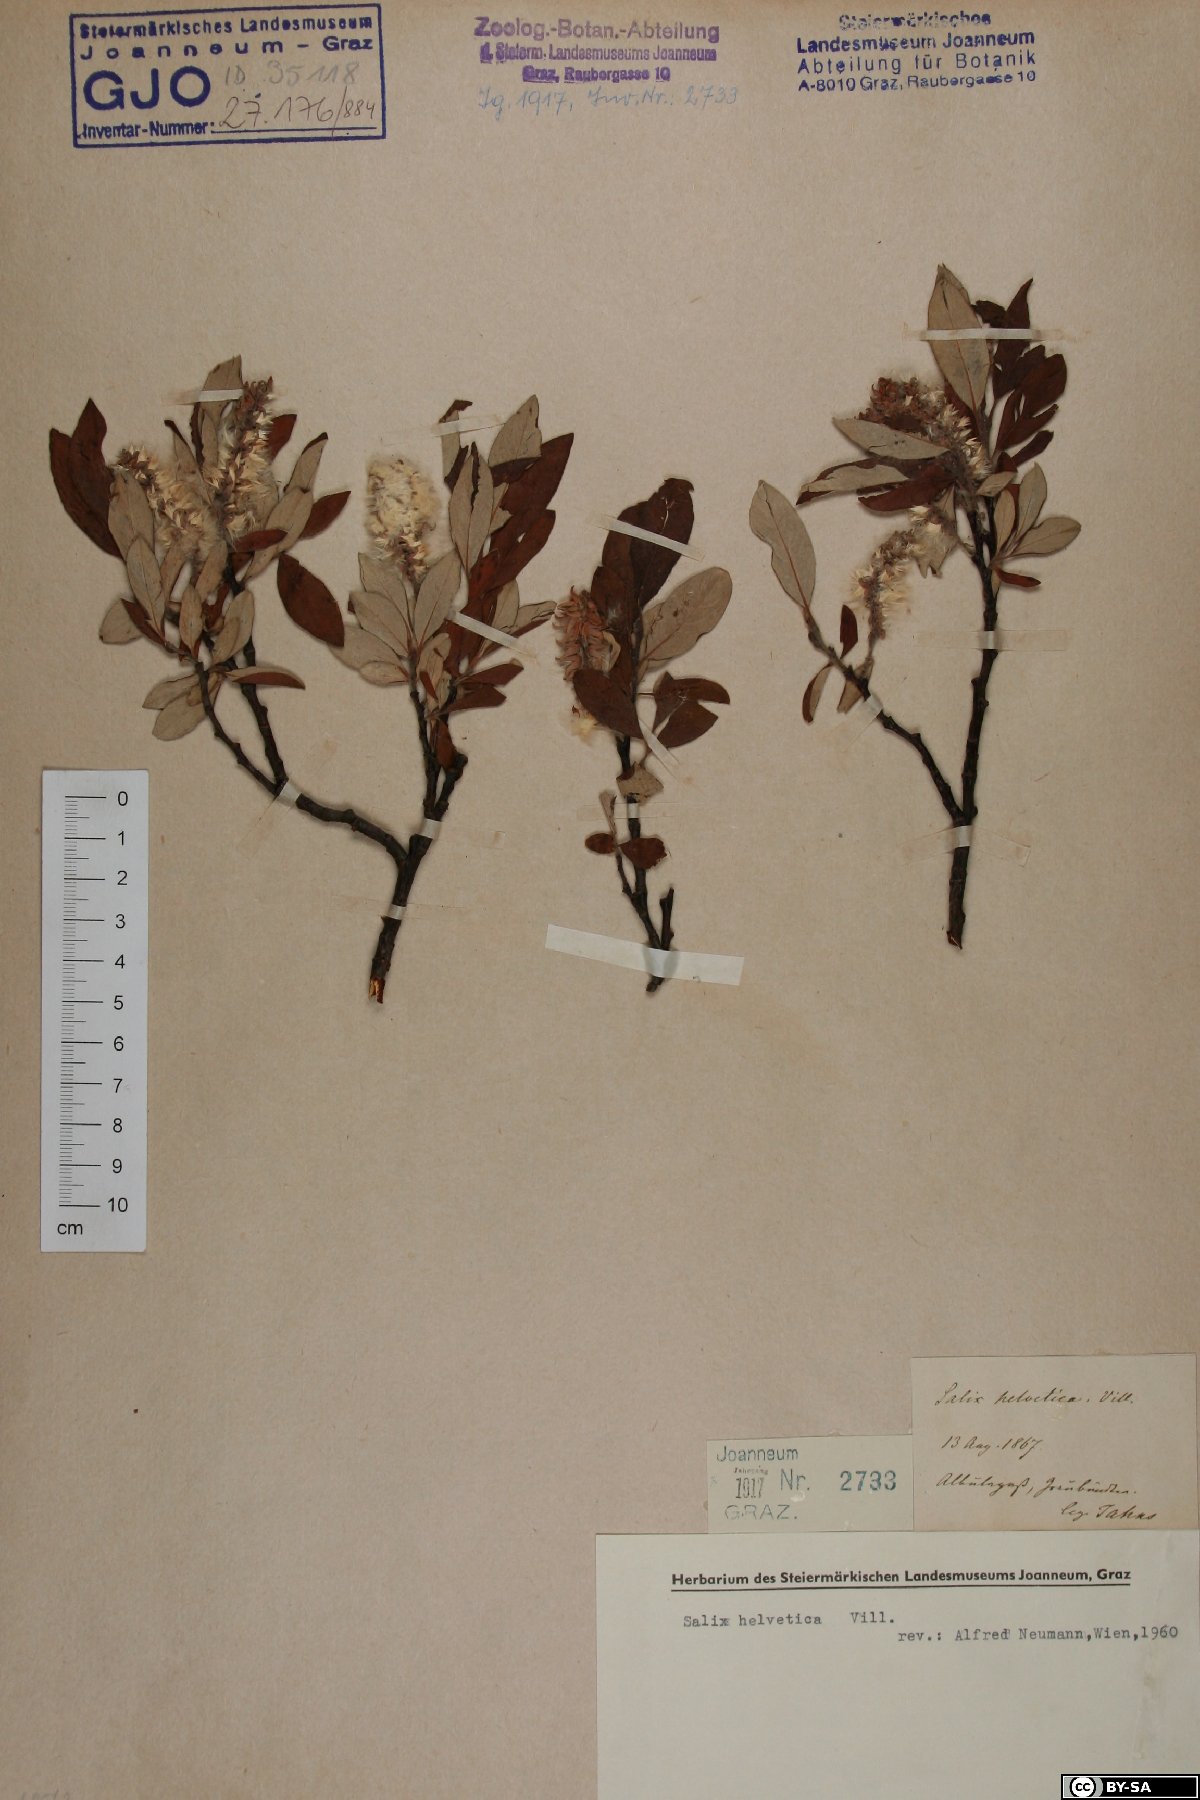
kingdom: Plantae
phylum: Tracheophyta
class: Magnoliopsida
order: Malpighiales
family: Salicaceae
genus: Salix
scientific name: Salix helvetica
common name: Swiss willow
